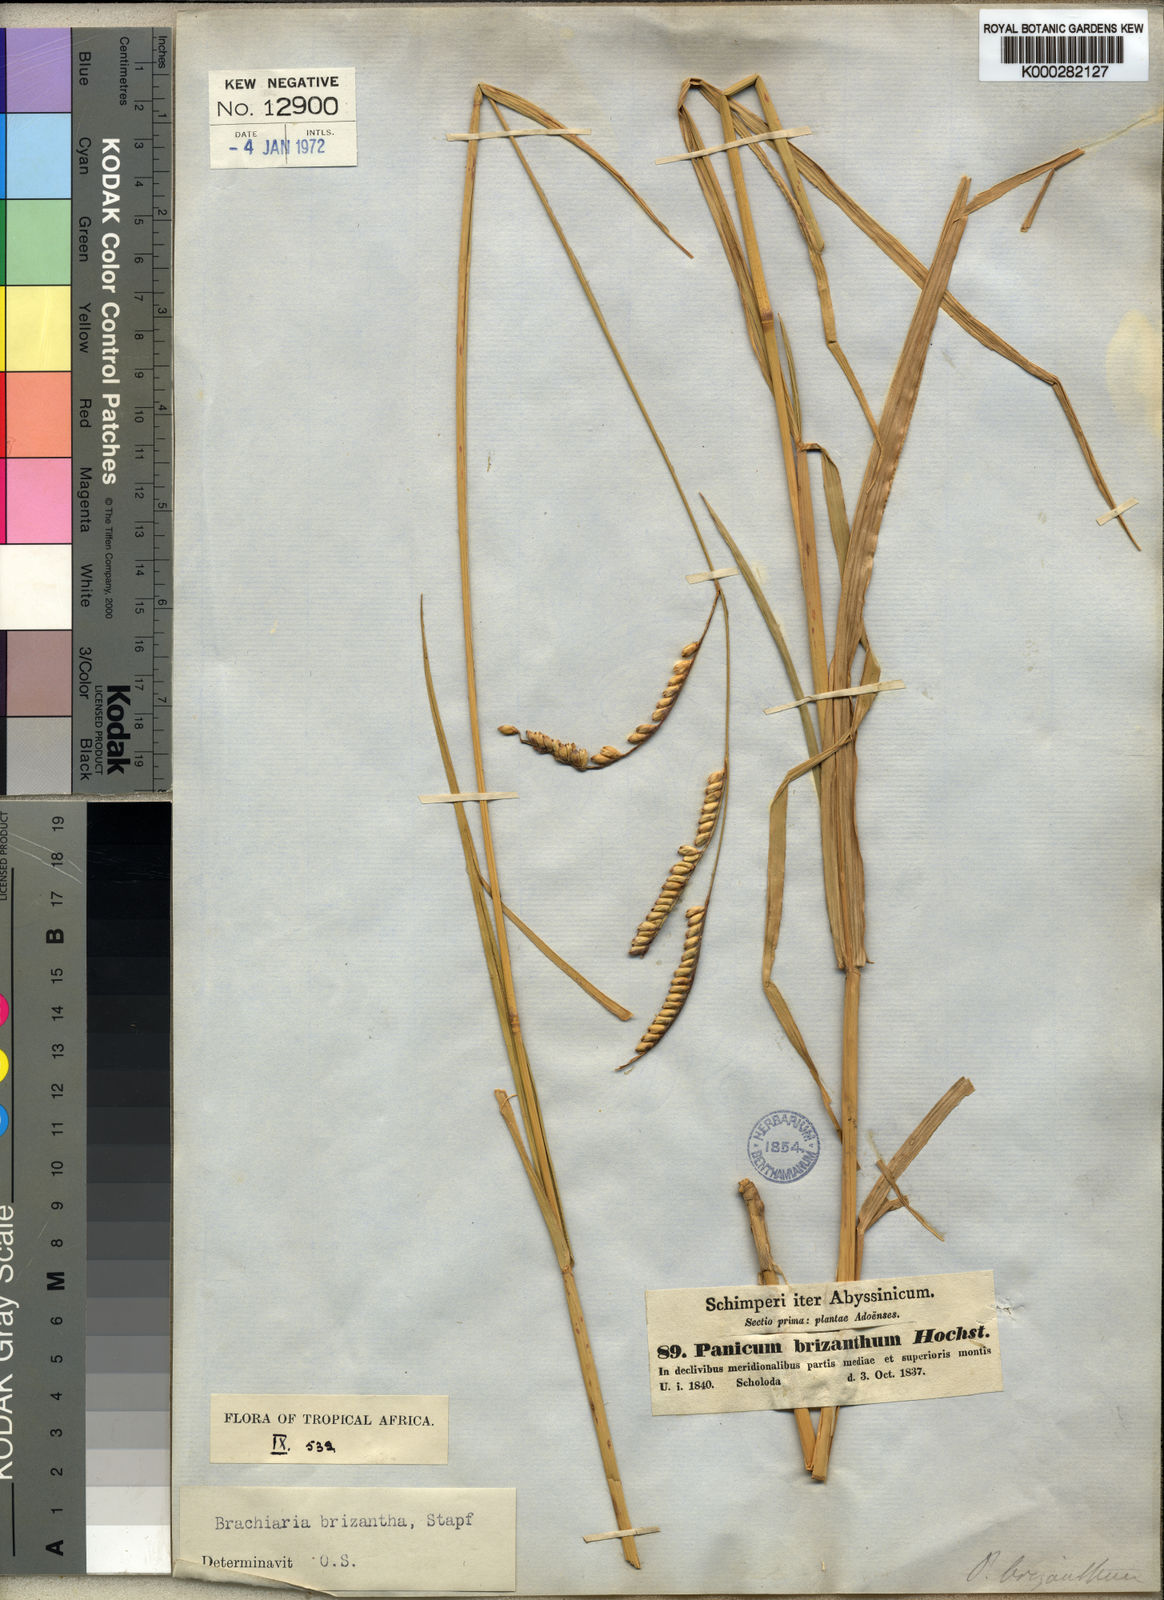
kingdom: Plantae
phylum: Tracheophyta
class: Liliopsida
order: Poales
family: Poaceae
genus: Urochloa
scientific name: Urochloa brizantha
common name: Palisade signalgrass
